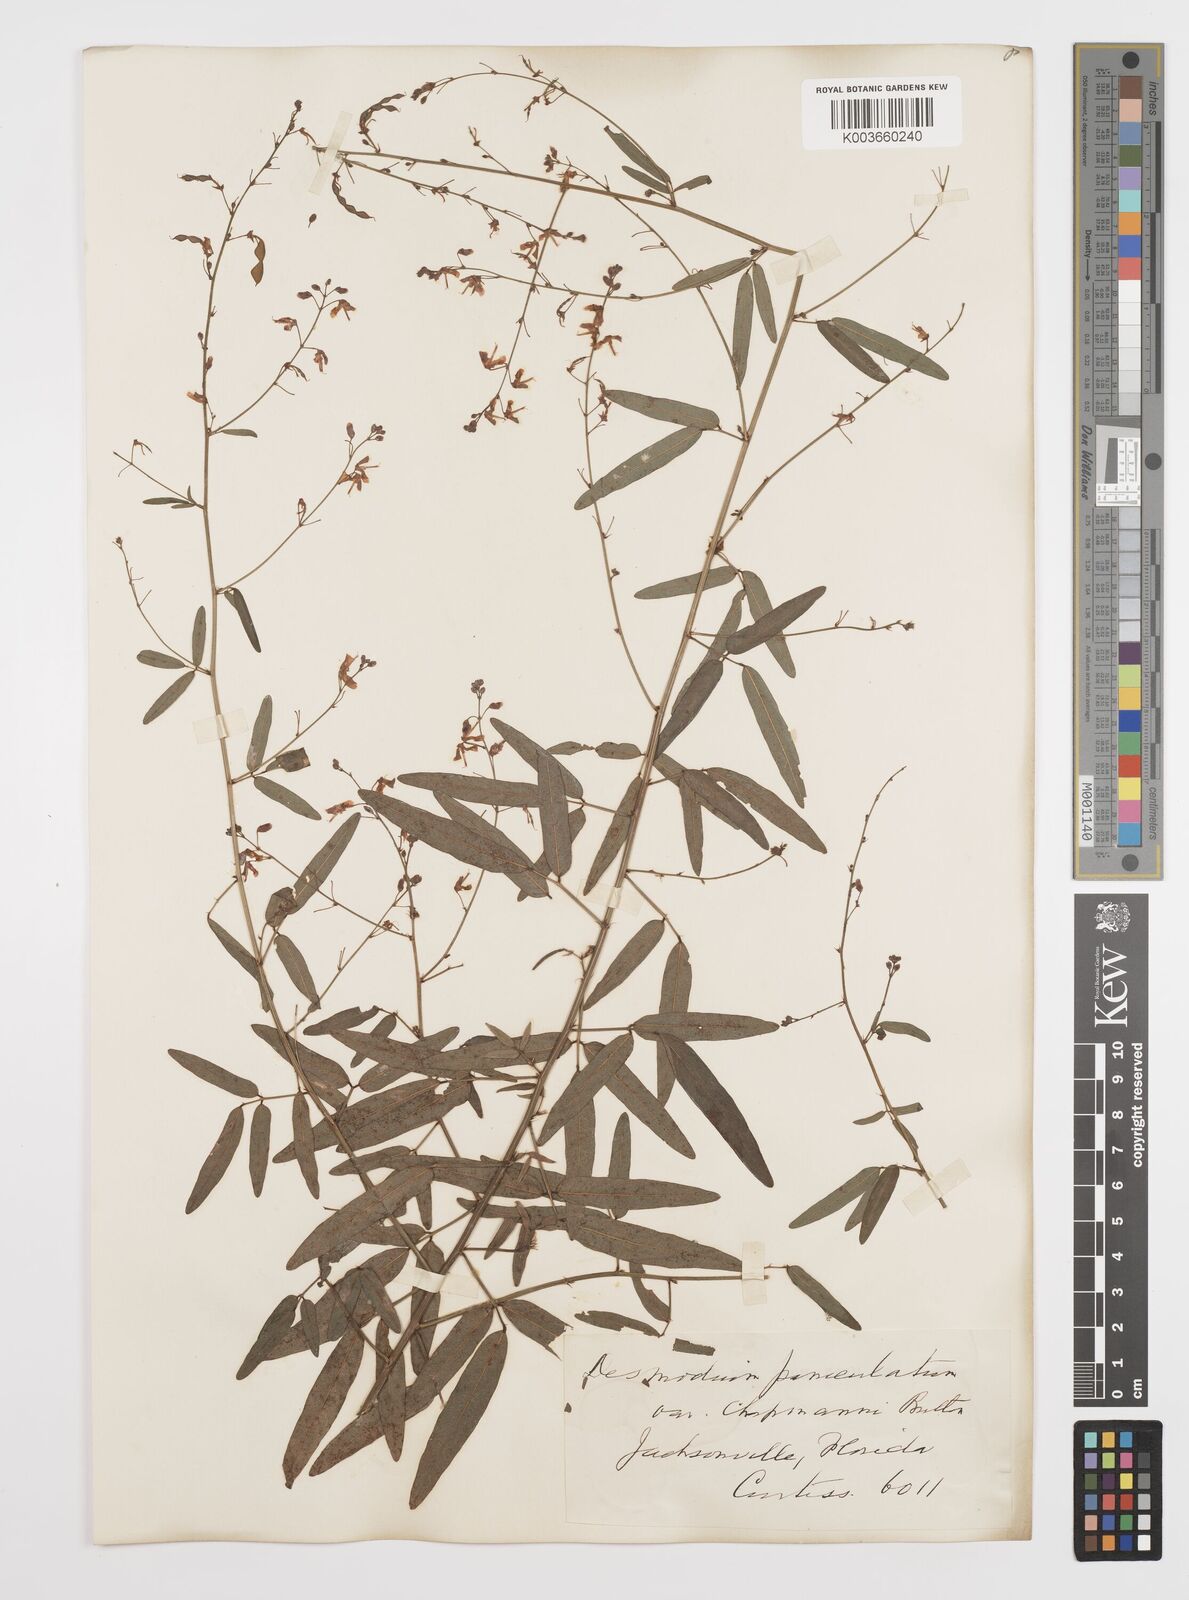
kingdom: Plantae
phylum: Tracheophyta
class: Magnoliopsida
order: Fabales
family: Fabaceae
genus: Desmodium
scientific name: Desmodium paniculatum
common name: Panicled tick-clover
